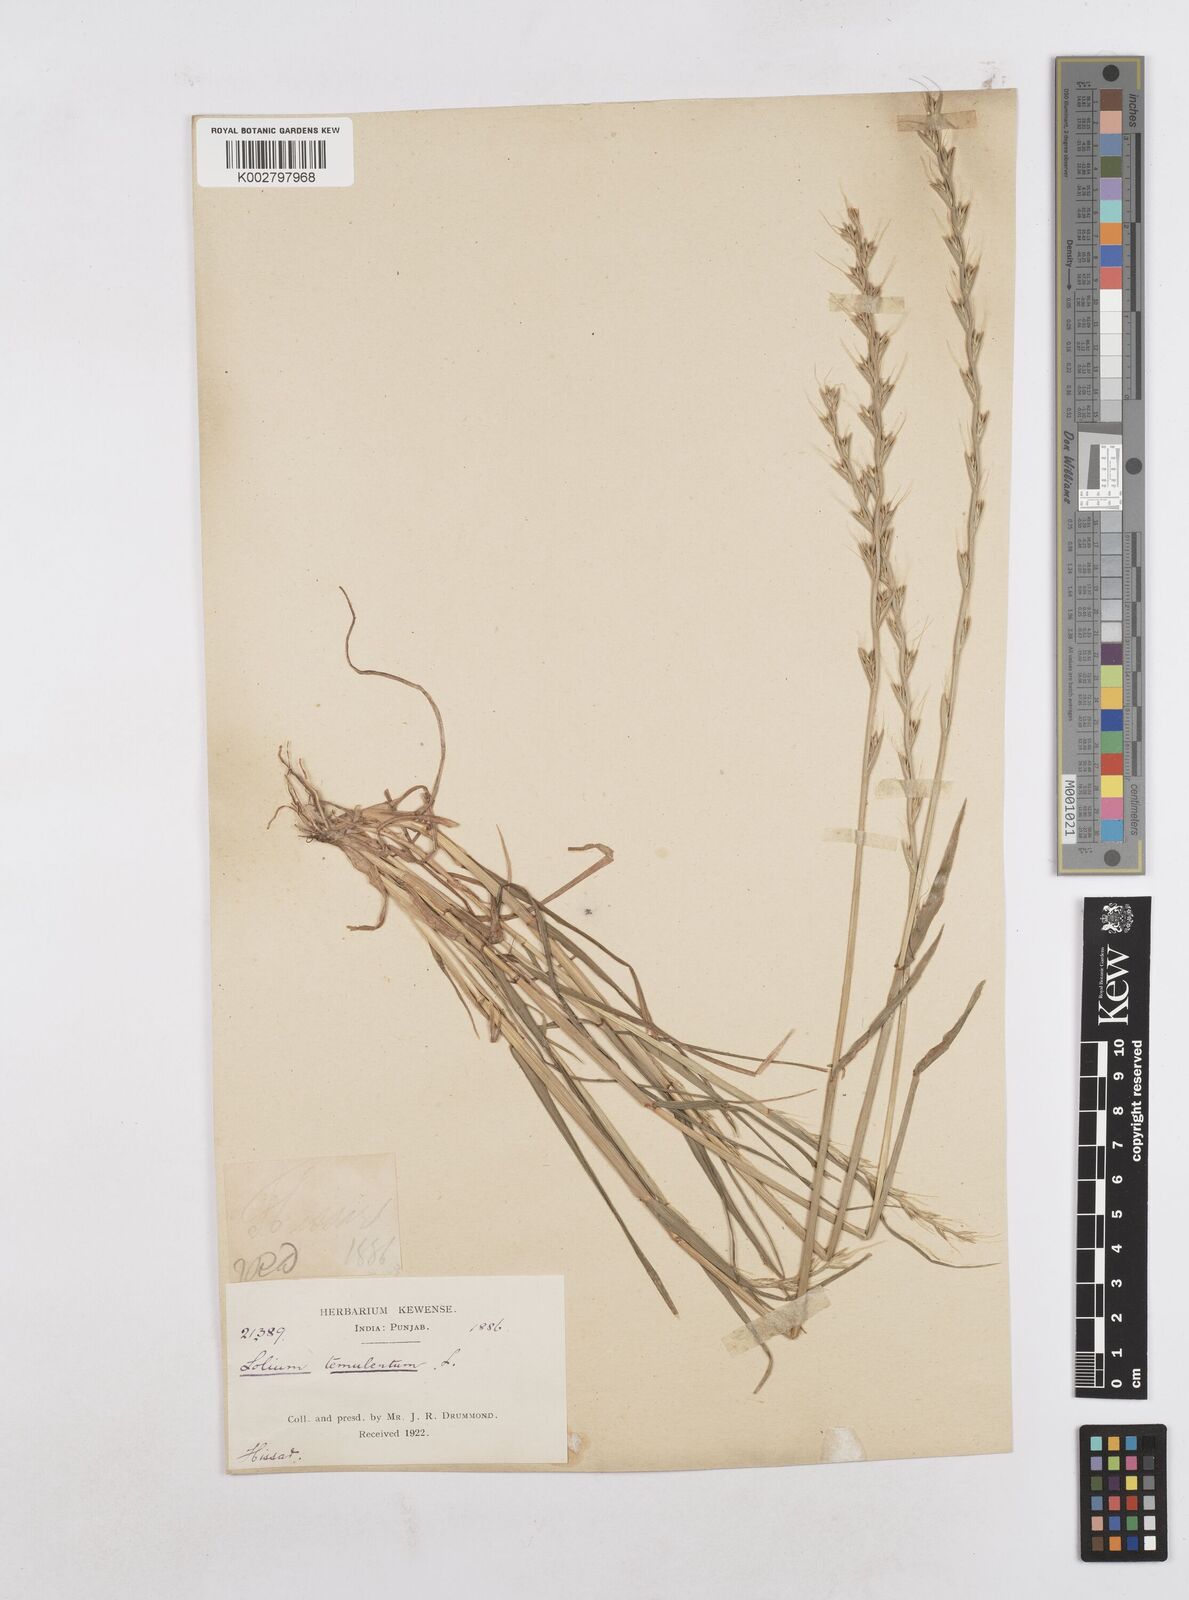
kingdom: Plantae
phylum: Tracheophyta
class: Liliopsida
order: Poales
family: Poaceae
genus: Lolium
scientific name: Lolium temulentum
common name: Darnel
